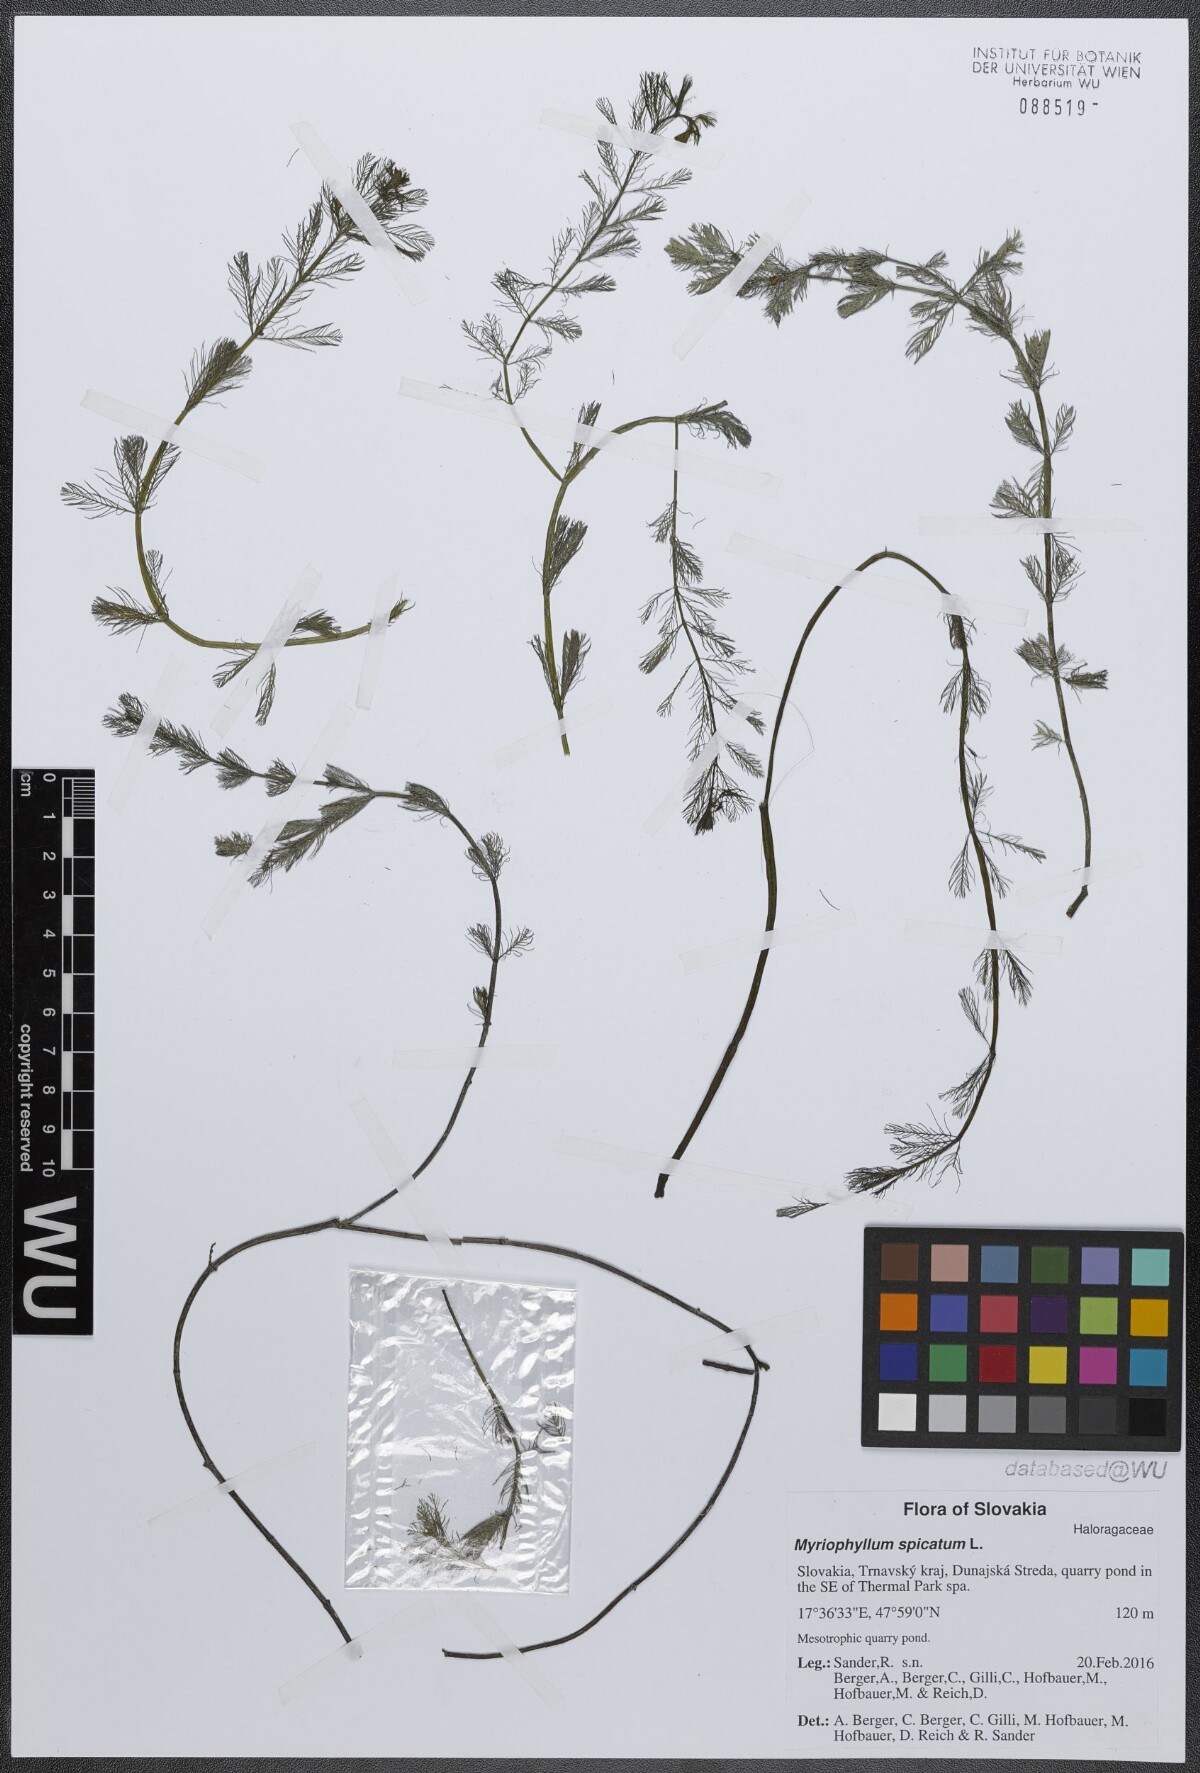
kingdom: Plantae
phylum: Tracheophyta
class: Magnoliopsida
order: Saxifragales
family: Haloragaceae
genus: Myriophyllum
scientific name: Myriophyllum spicatum
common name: Spiked water-milfoil
